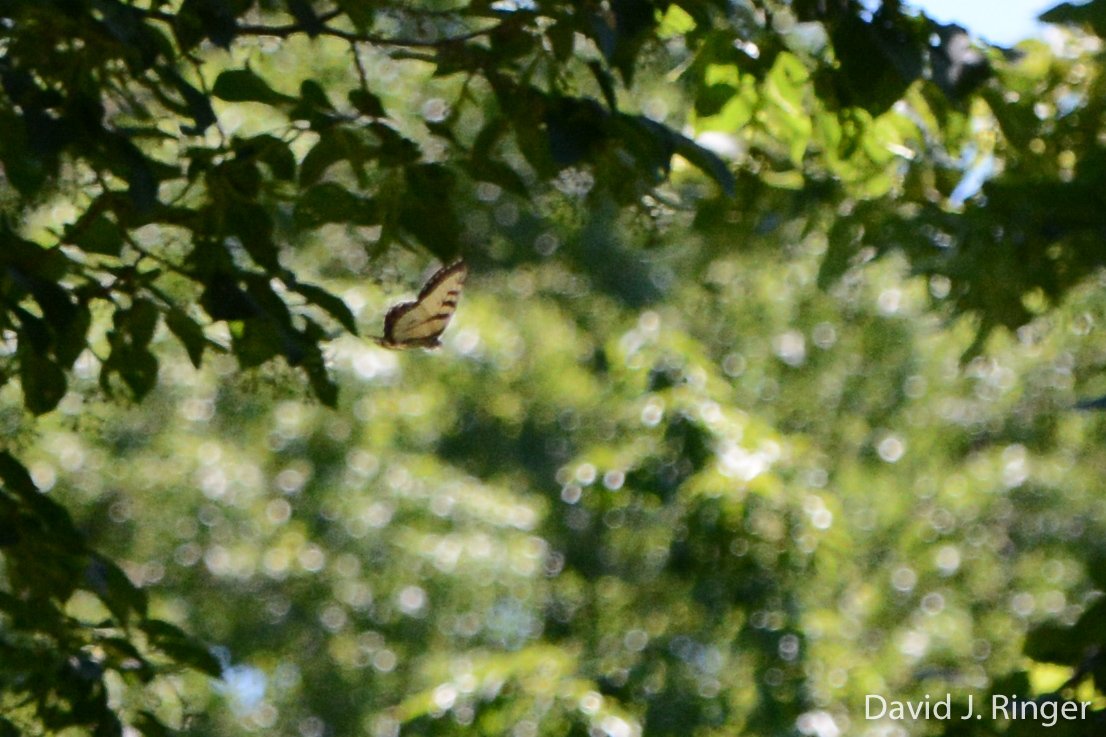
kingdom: Animalia
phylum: Arthropoda
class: Insecta
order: Lepidoptera
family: Papilionidae
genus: Pterourus
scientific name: Pterourus glaucus
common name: Eastern Tiger Swallowtail
